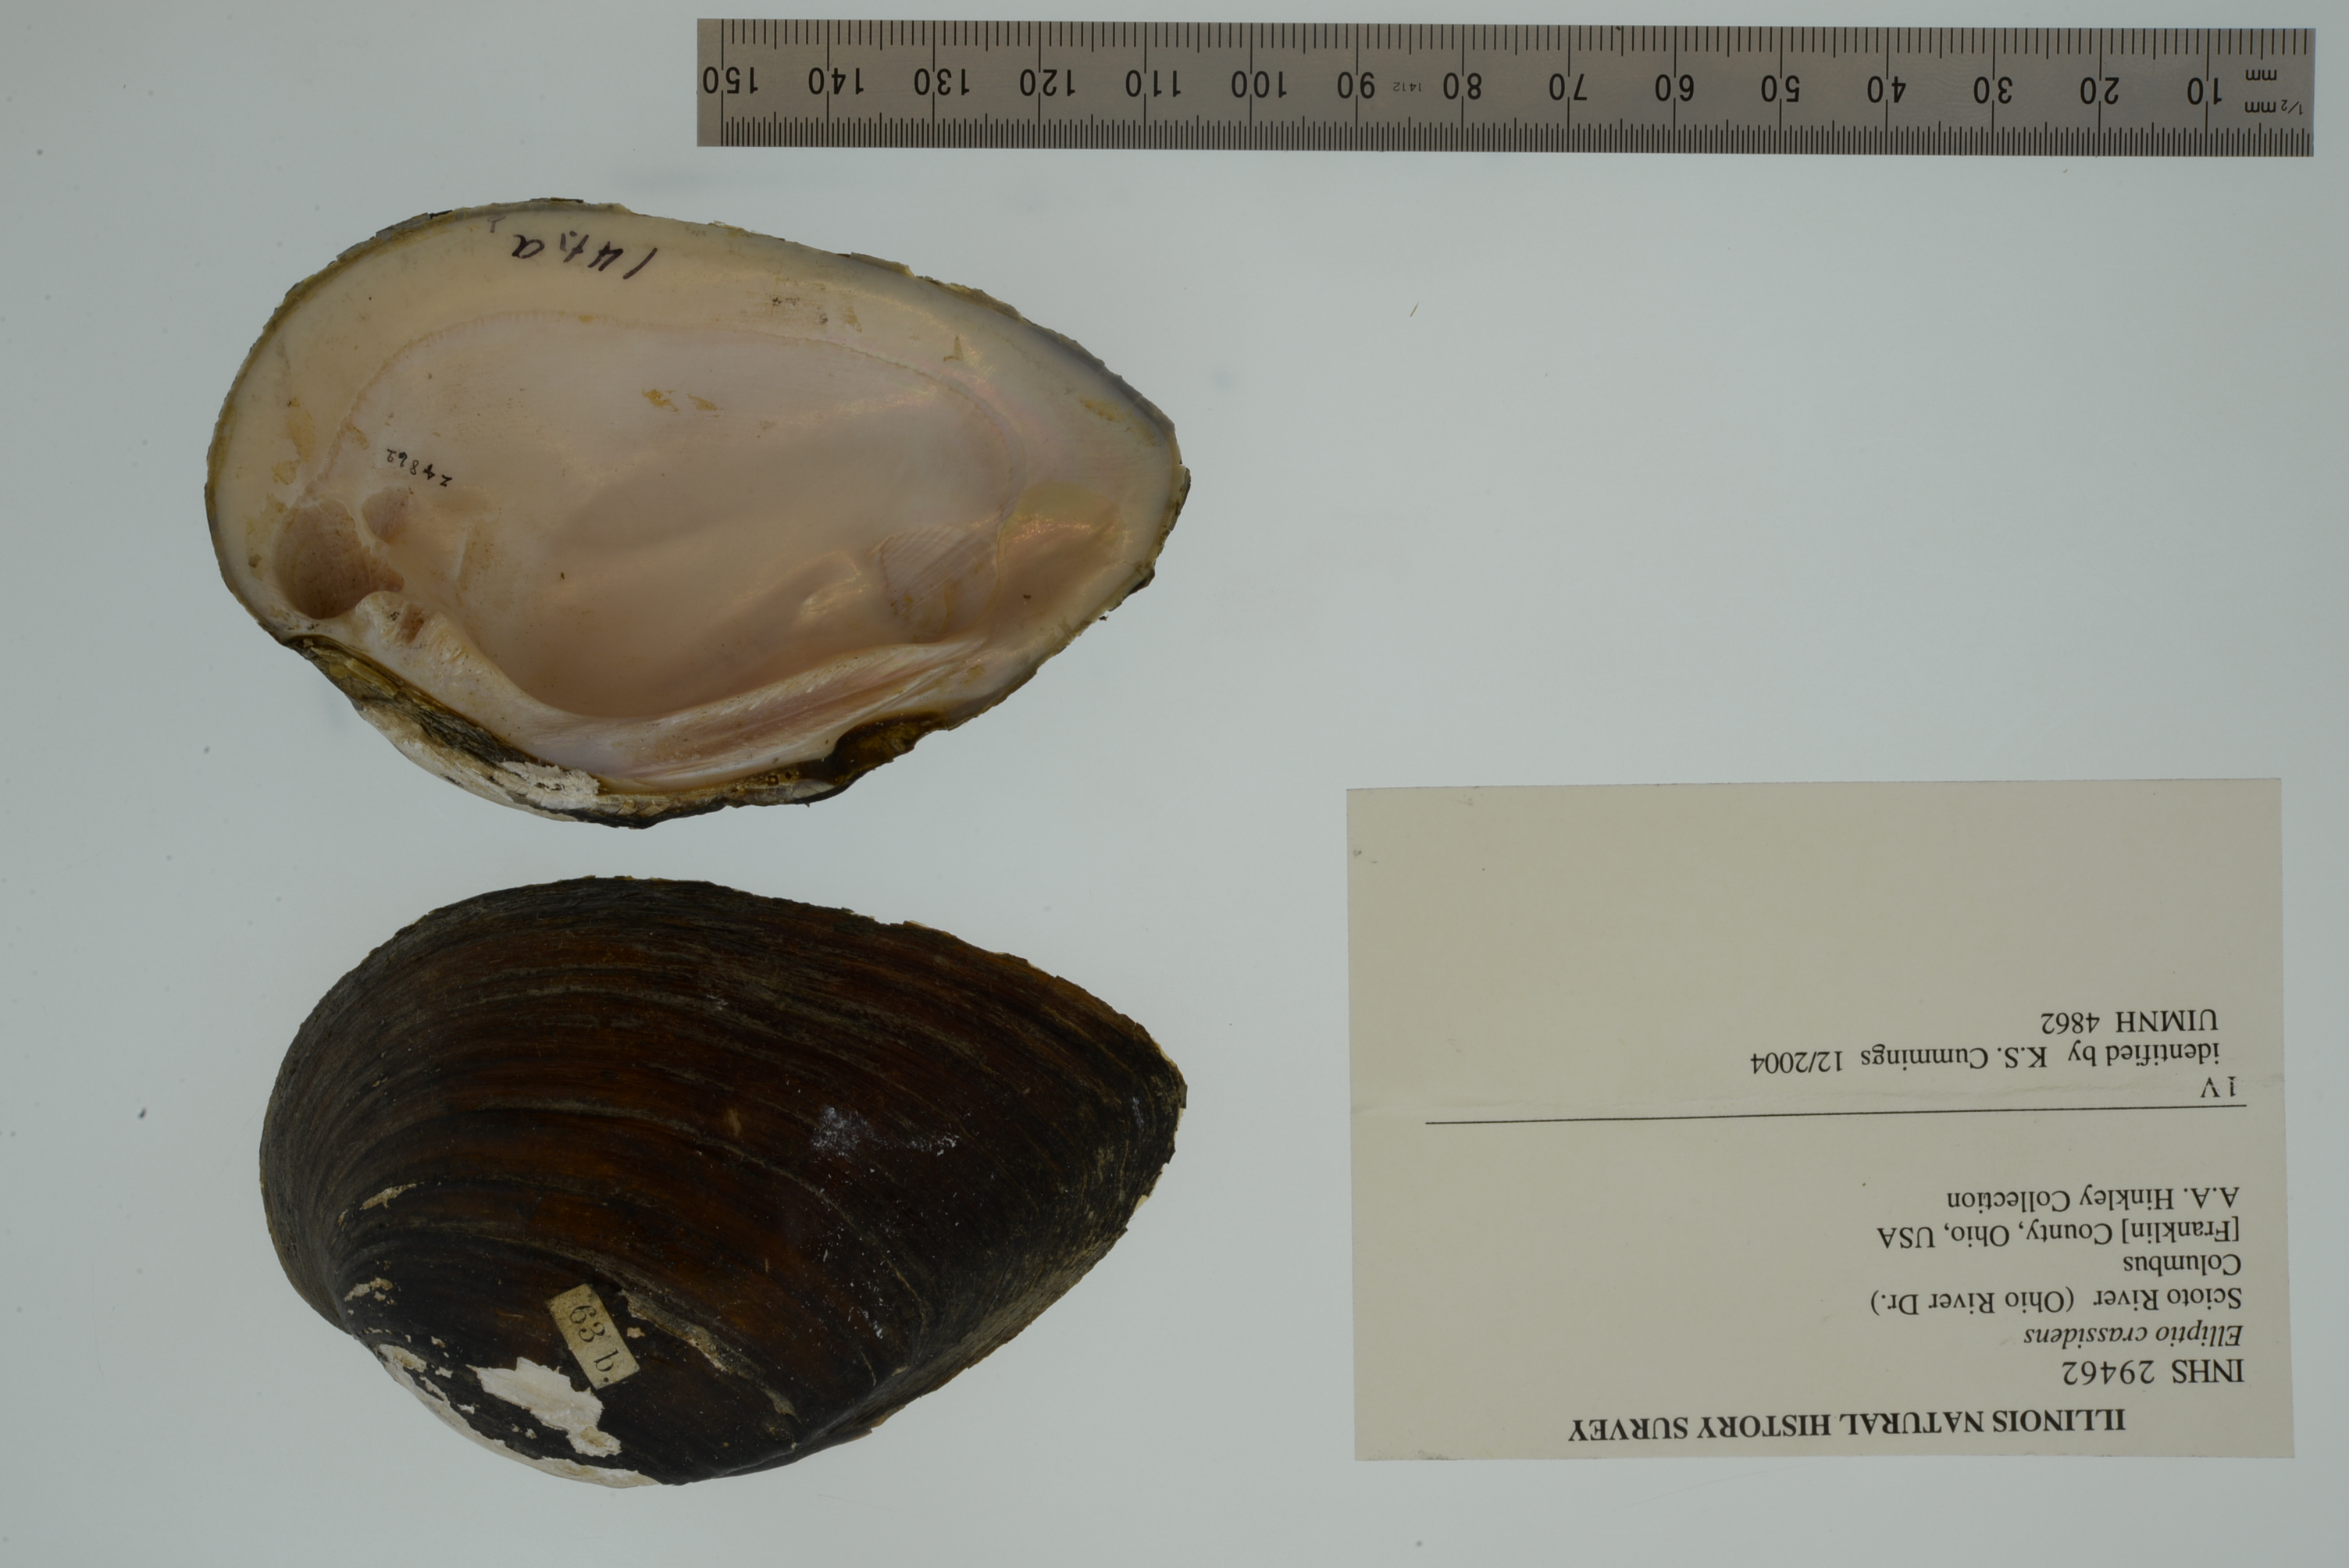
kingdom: Animalia
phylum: Mollusca
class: Bivalvia
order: Unionida
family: Unionidae
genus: Elliptio
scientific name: Elliptio crassidens
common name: Blue ham
